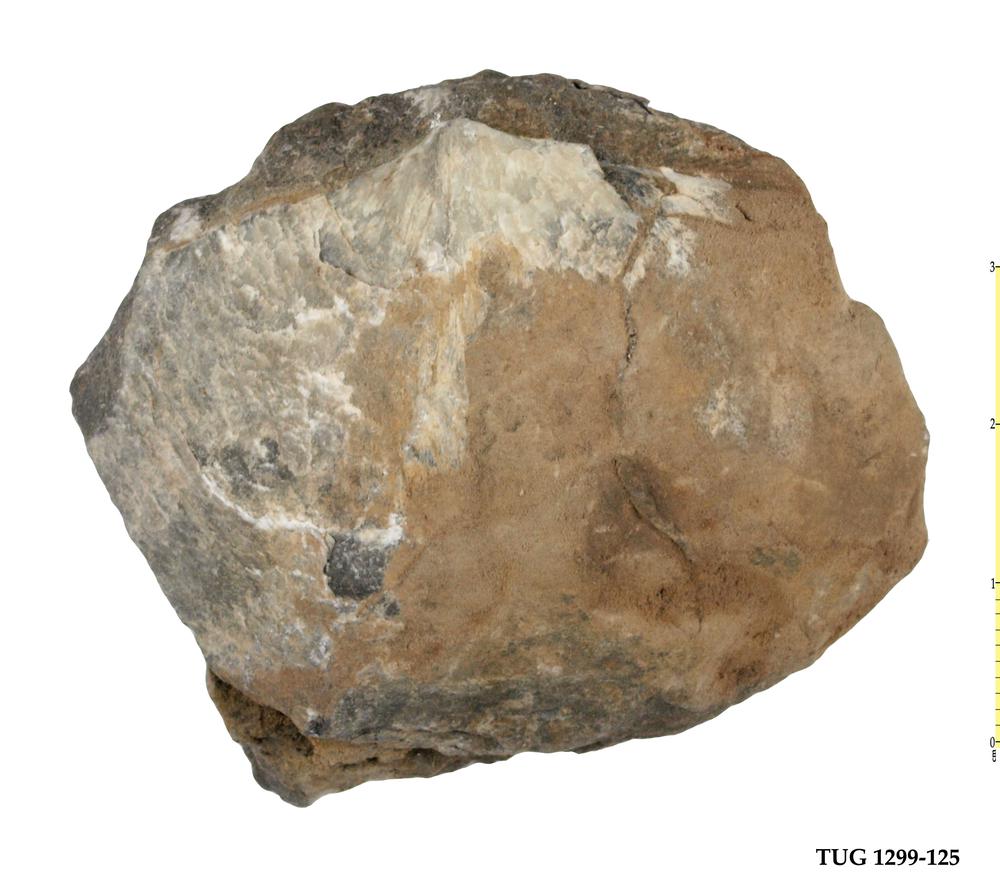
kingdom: Animalia
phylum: Brachiopoda
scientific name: Brachiopoda
